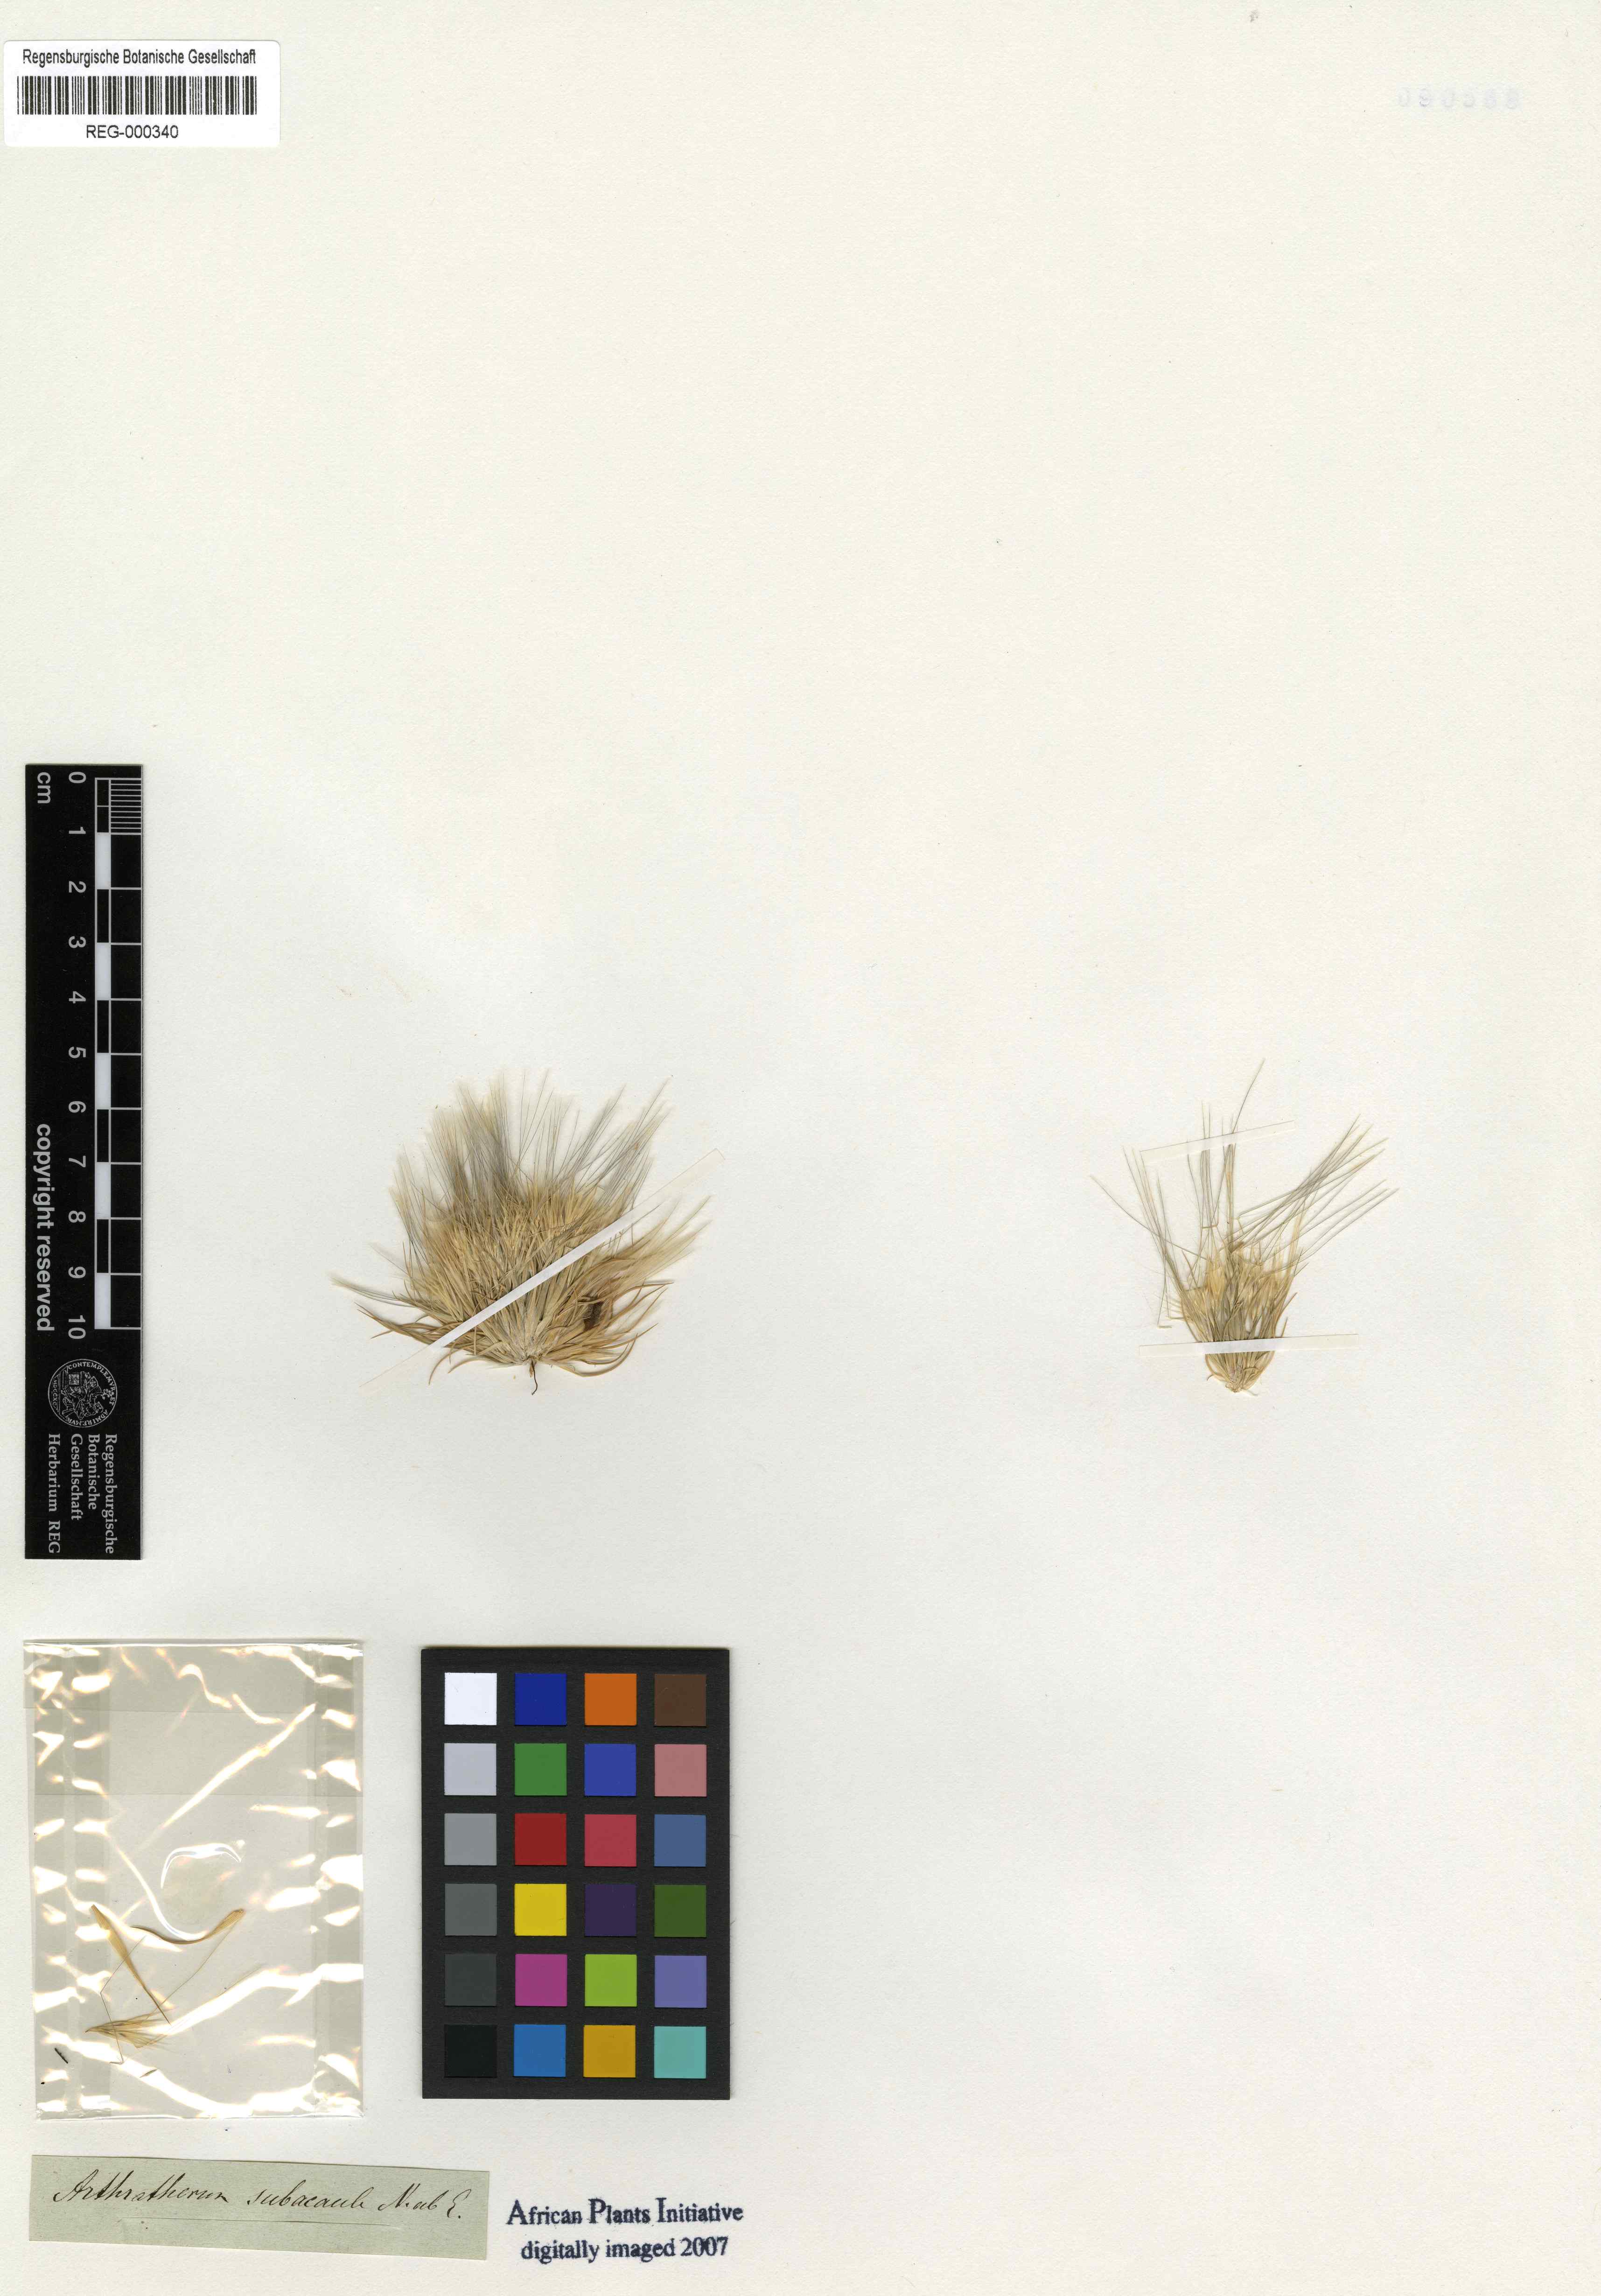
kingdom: Plantae
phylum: Tracheophyta
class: Liliopsida
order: Poales
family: Poaceae
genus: Stipagrostis
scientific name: Stipagrostis subacaulis
